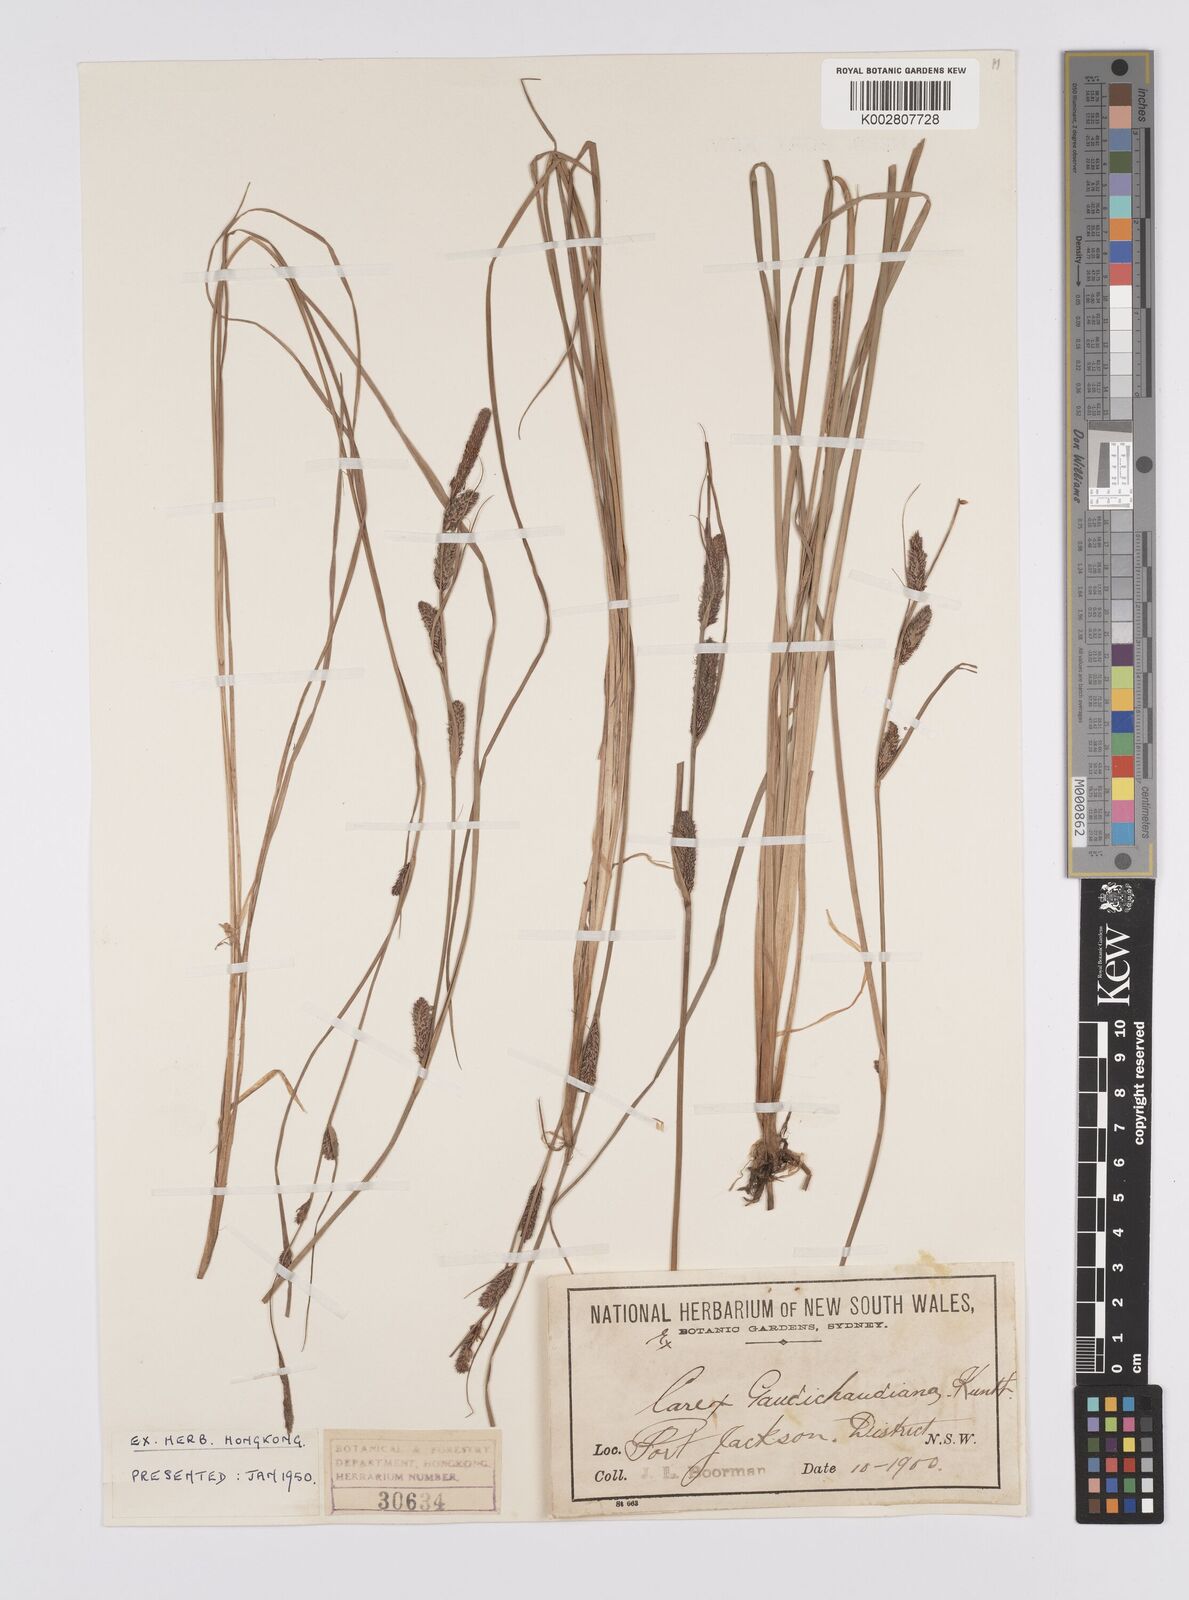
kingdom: Plantae
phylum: Tracheophyta
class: Liliopsida
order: Poales
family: Cyperaceae
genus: Carex
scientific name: Carex gaudichaudiana
